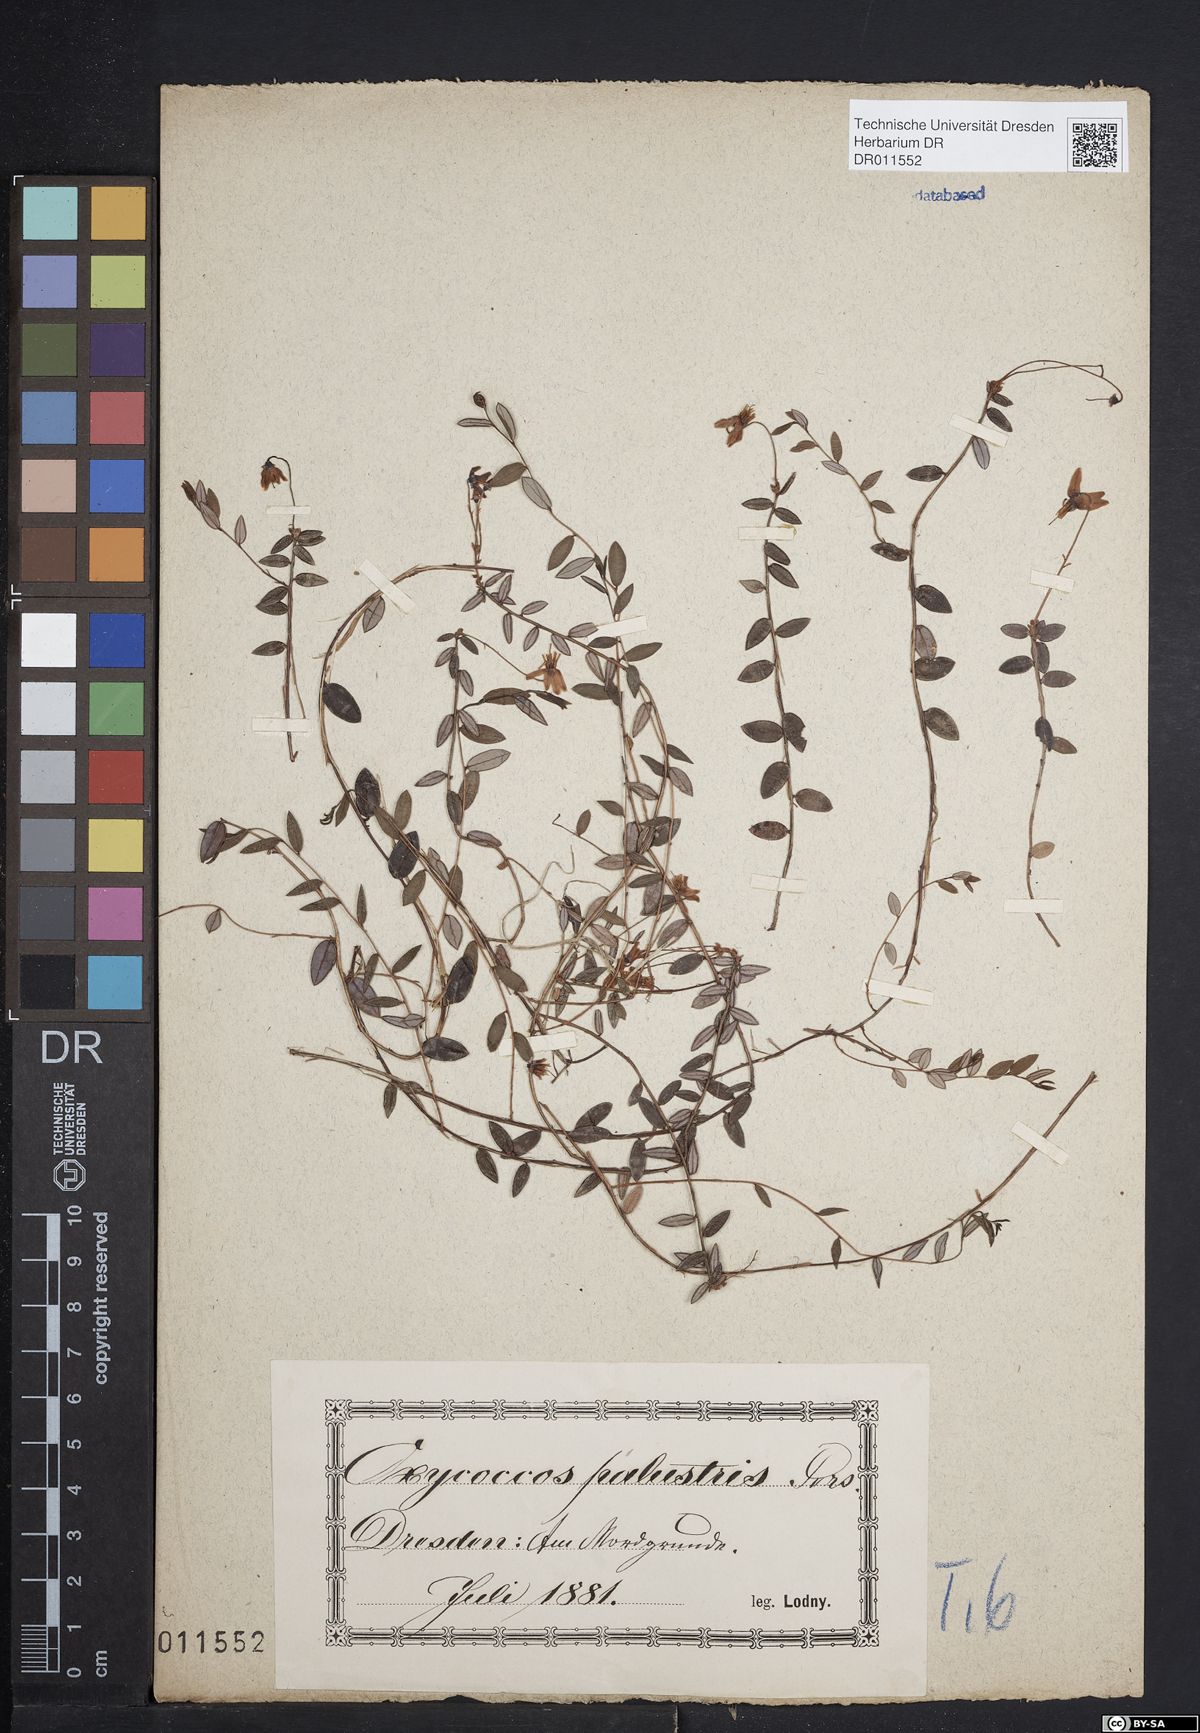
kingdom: Plantae
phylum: Tracheophyta
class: Magnoliopsida
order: Ericales
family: Ericaceae
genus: Vaccinium
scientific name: Vaccinium oxycoccos
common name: Cranberry
